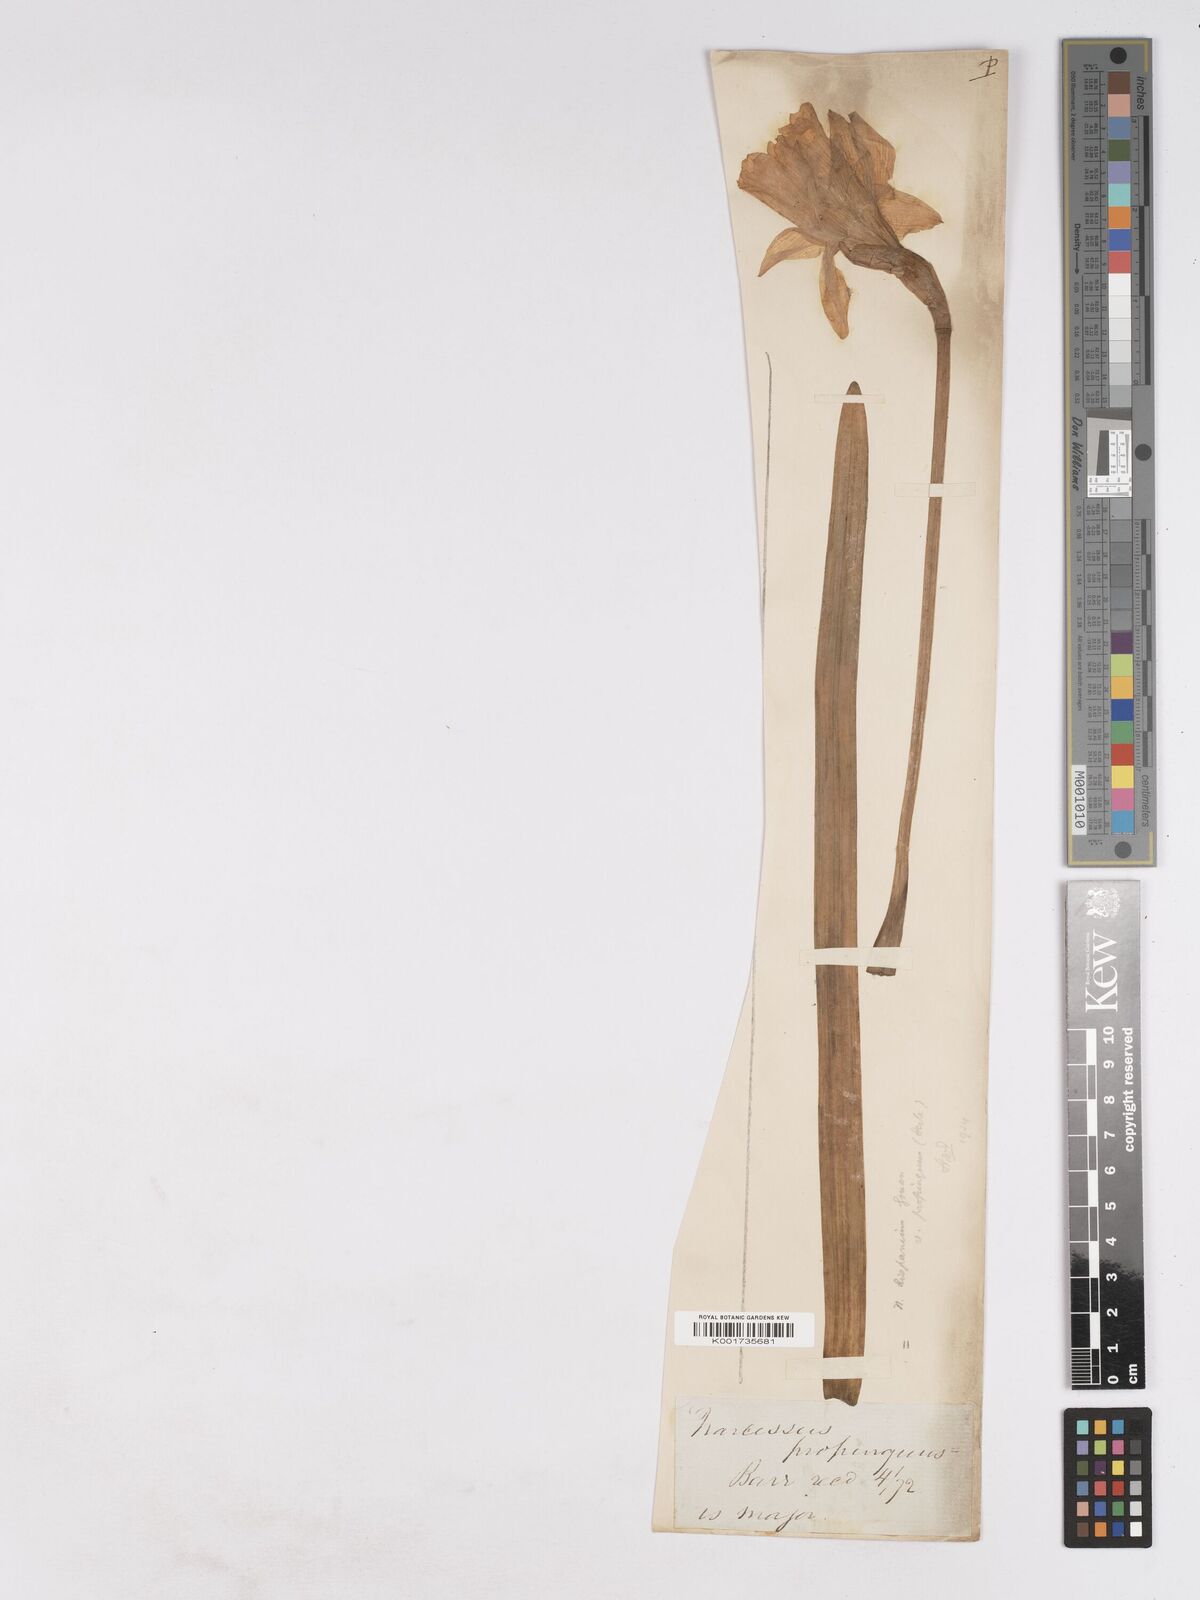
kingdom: Plantae
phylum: Tracheophyta
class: Liliopsida
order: Asparagales
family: Amaryllidaceae
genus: Narcissus
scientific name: Narcissus pseudonarcissus
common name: Daffodil
